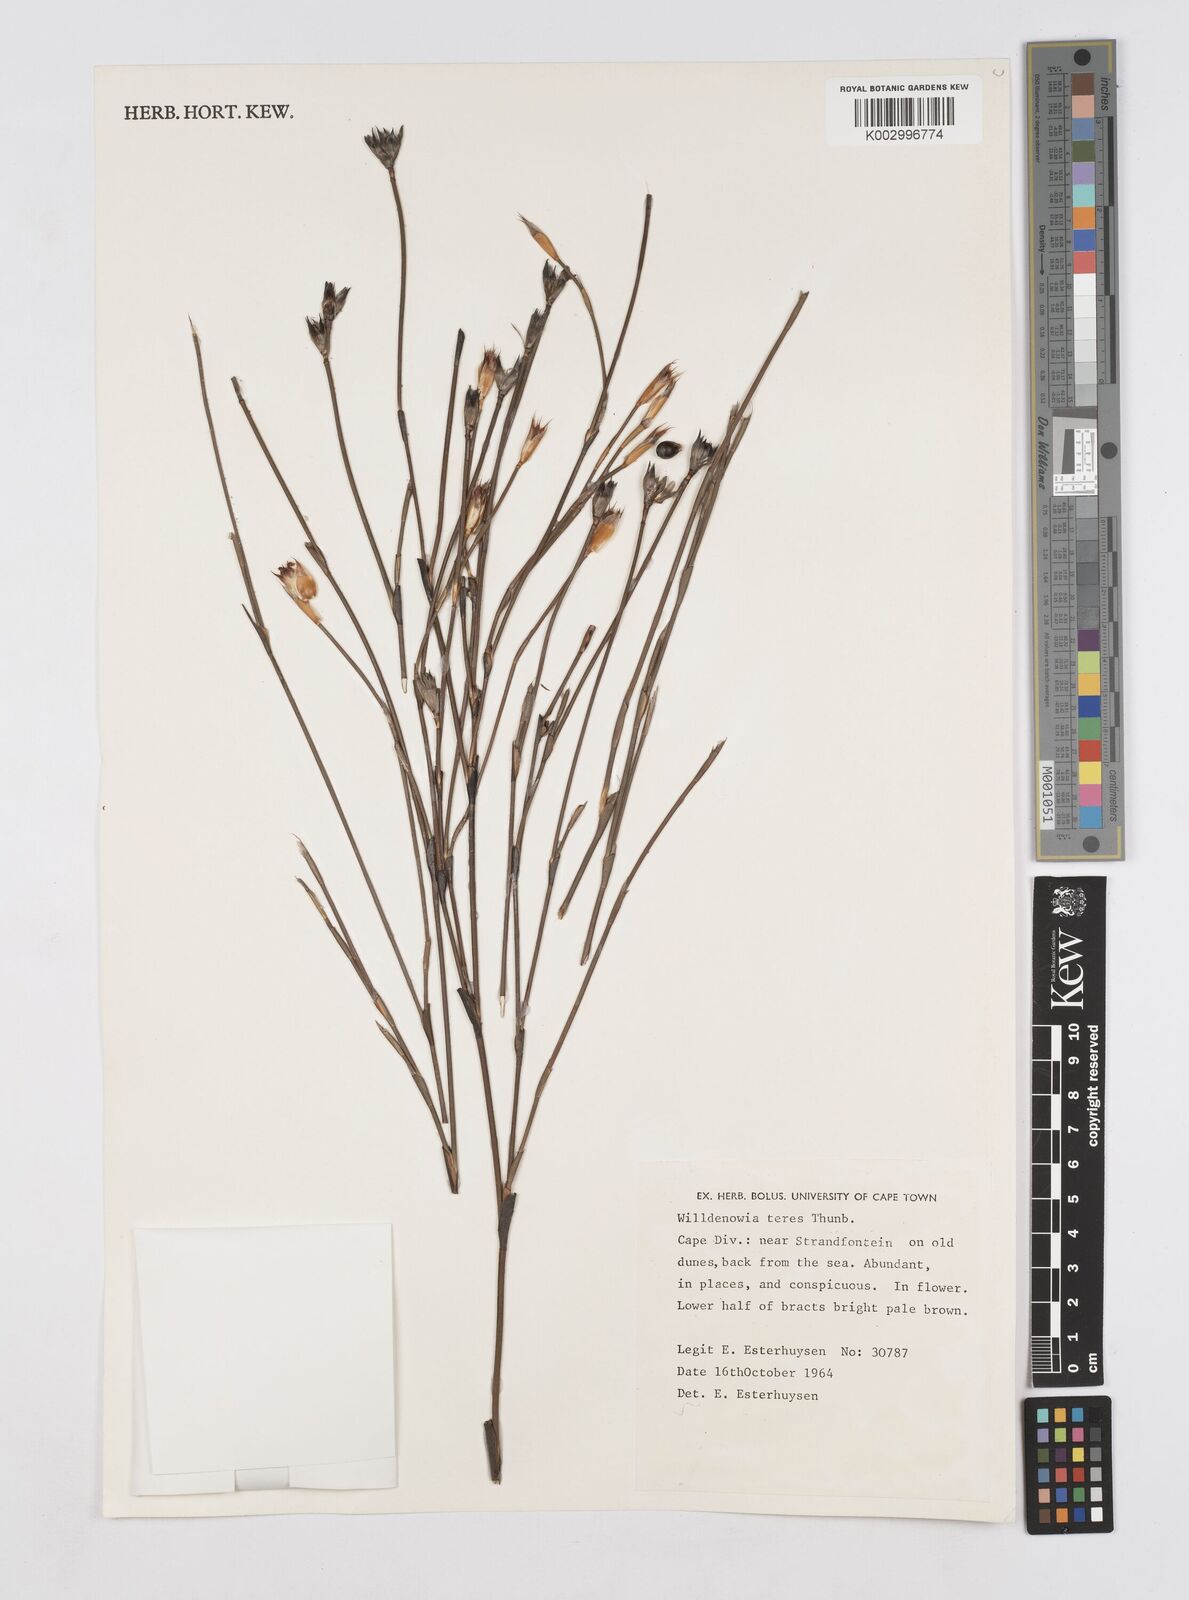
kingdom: Plantae
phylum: Tracheophyta
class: Liliopsida
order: Poales
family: Restionaceae
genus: Willdenowia
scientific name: Willdenowia teres
